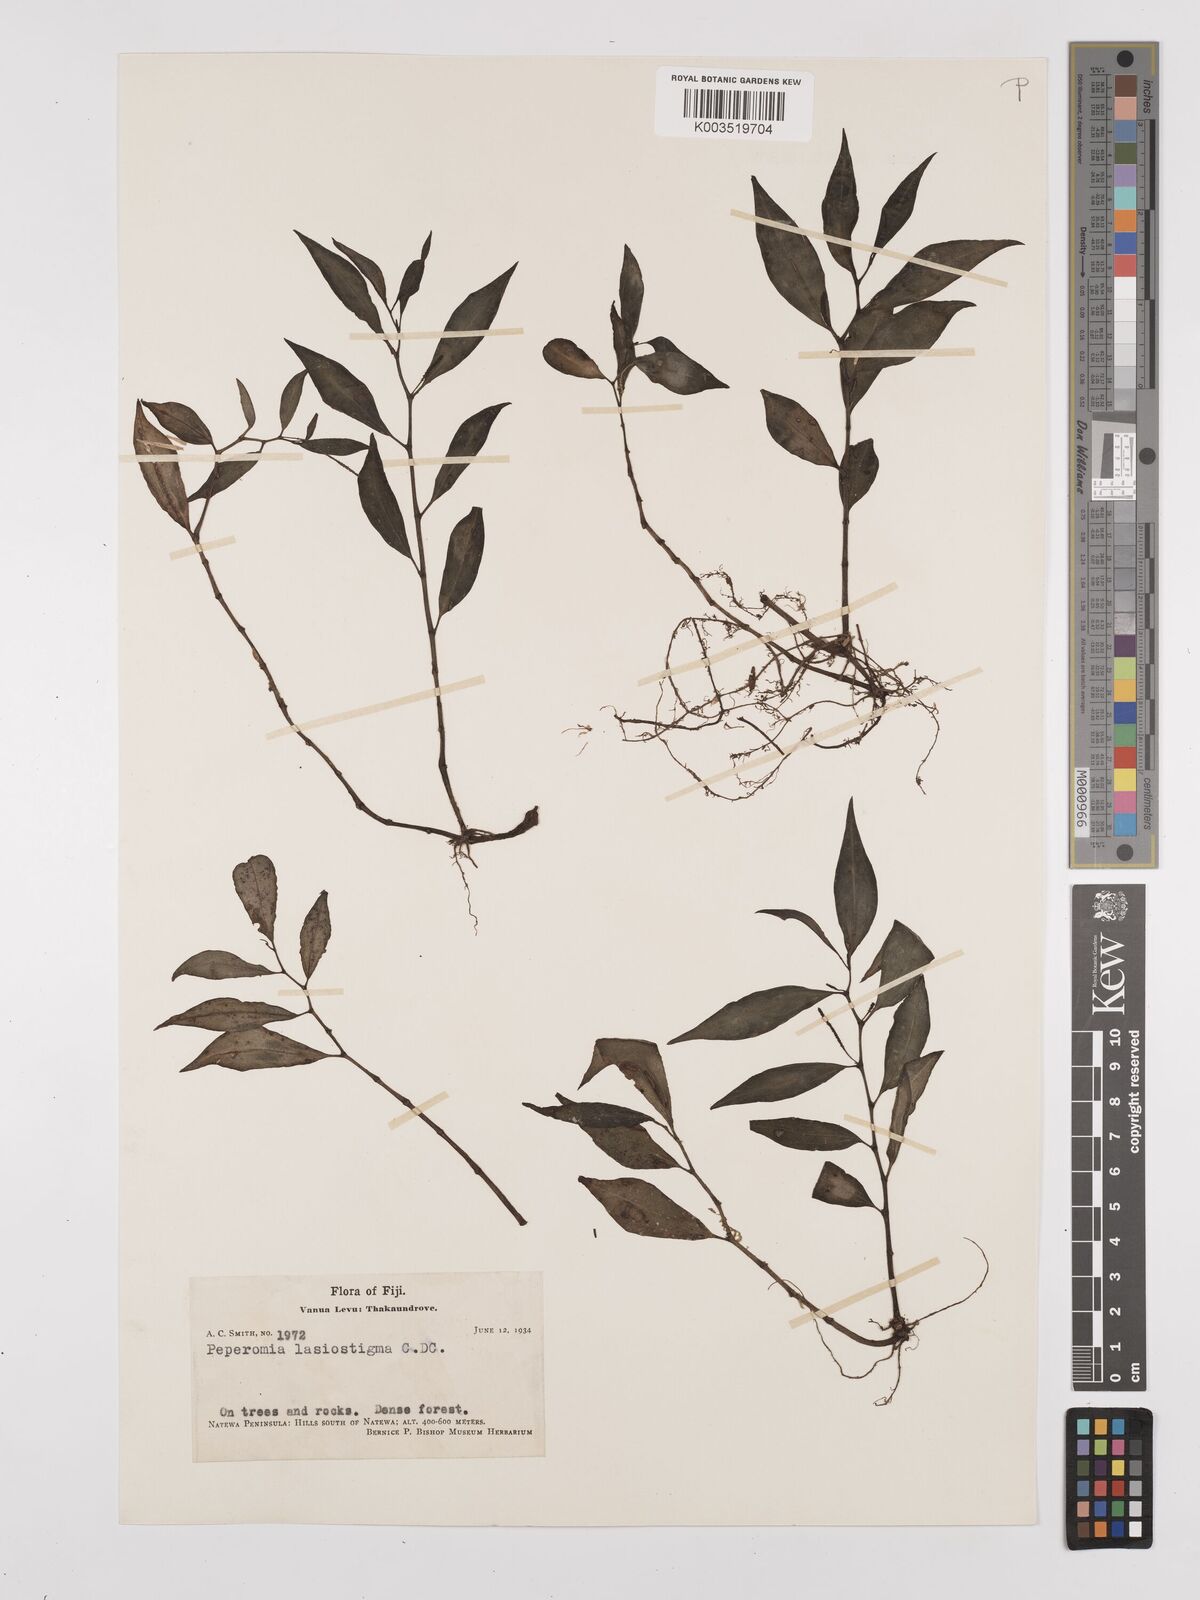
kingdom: Plantae
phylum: Tracheophyta
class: Magnoliopsida
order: Piperales
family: Piperaceae
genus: Peperomia
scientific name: Peperomia lasiostigma
